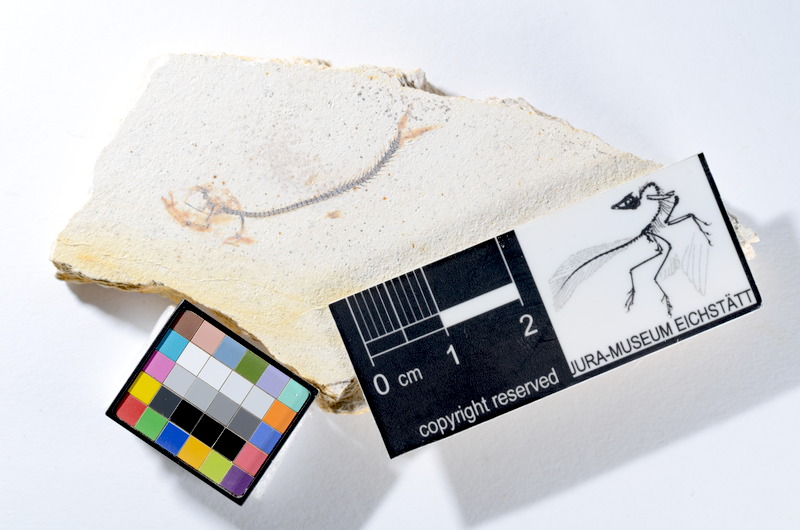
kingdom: Animalia
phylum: Chordata
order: Salmoniformes
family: Orthogonikleithridae
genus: Orthogonikleithrus
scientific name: Orthogonikleithrus hoelli
